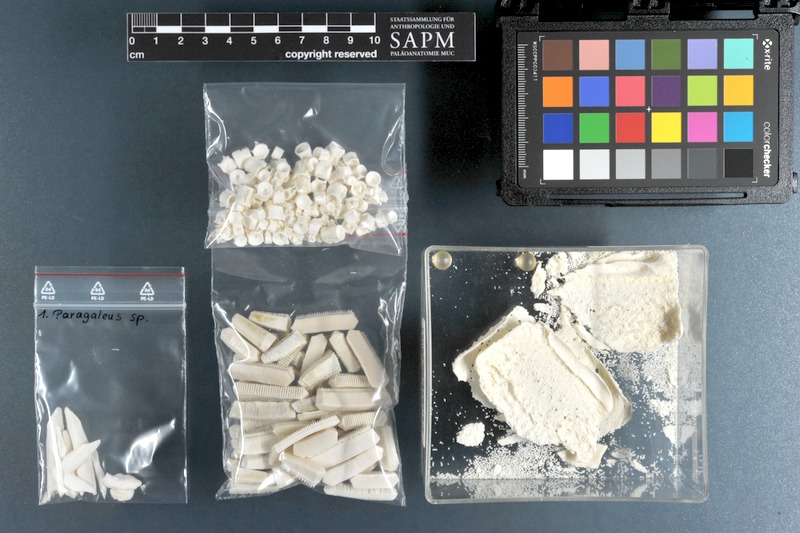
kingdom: Animalia
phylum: Chordata
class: Elasmobranchii
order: Carcharhiniformes
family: Hemigaleidae
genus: Paragaleus
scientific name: Paragaleus
